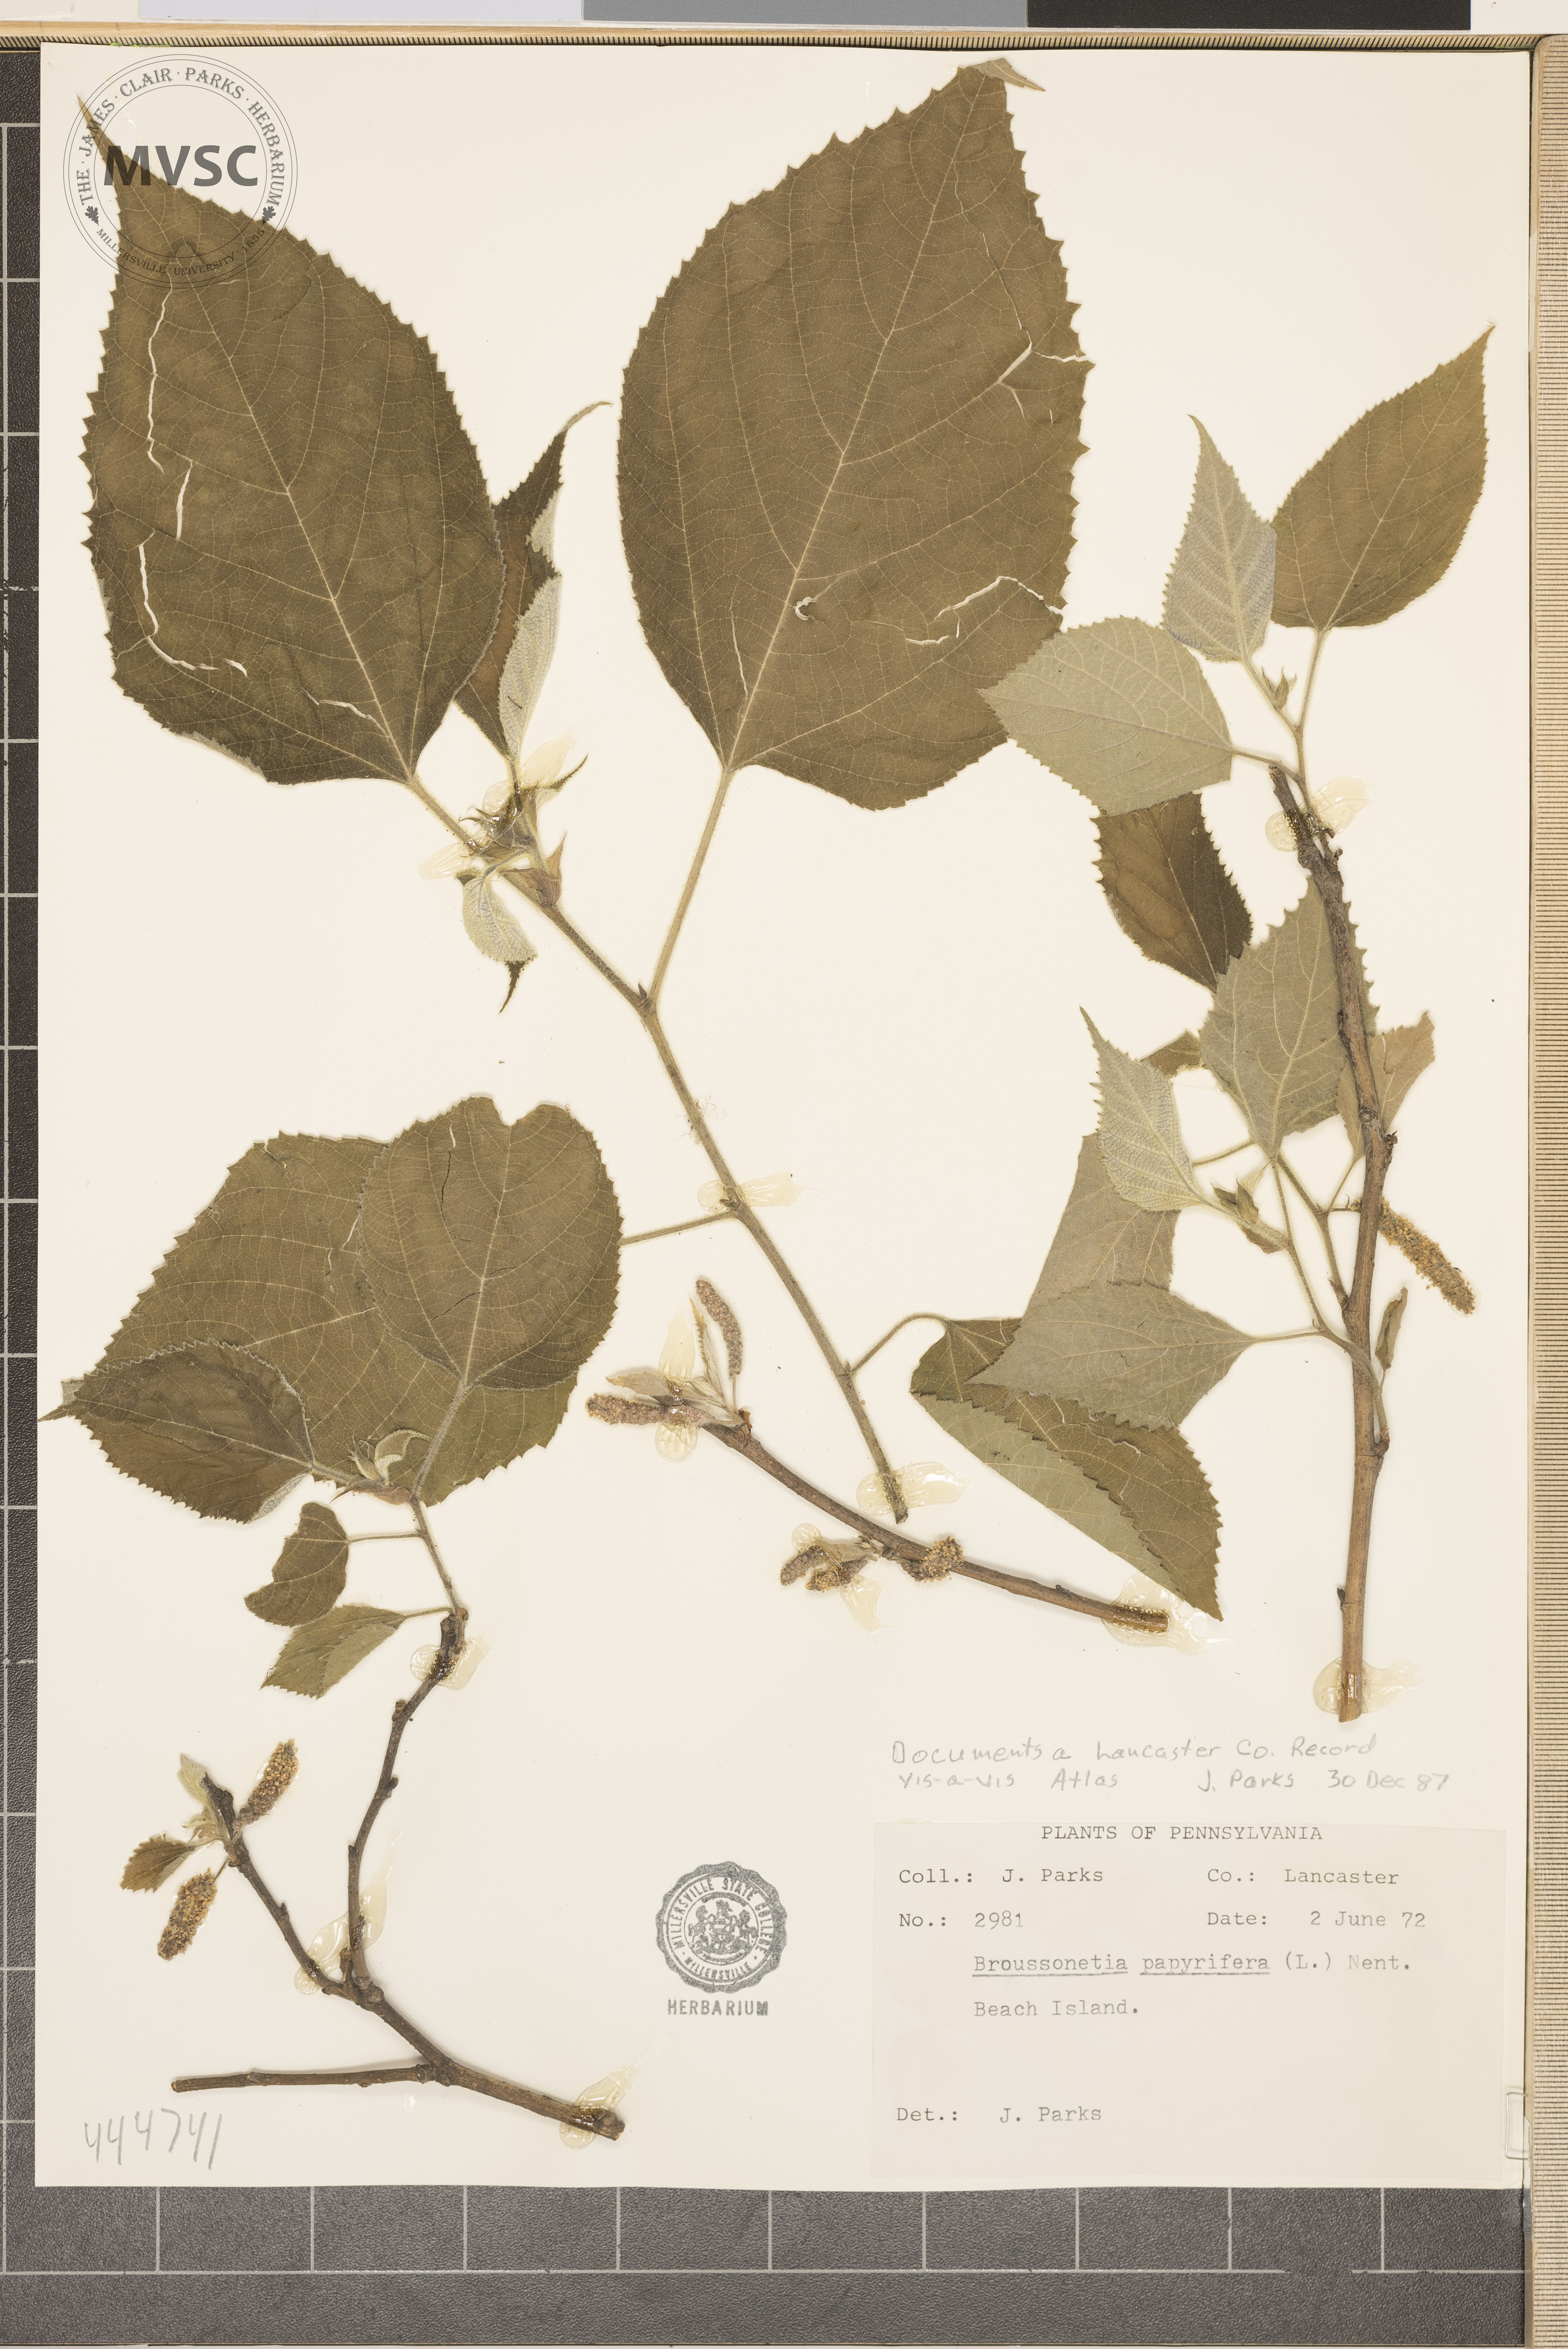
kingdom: Plantae
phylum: Tracheophyta
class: Magnoliopsida
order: Rosales
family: Moraceae
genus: Broussonetia
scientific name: Broussonetia papyrifera
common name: Paper mulberry
